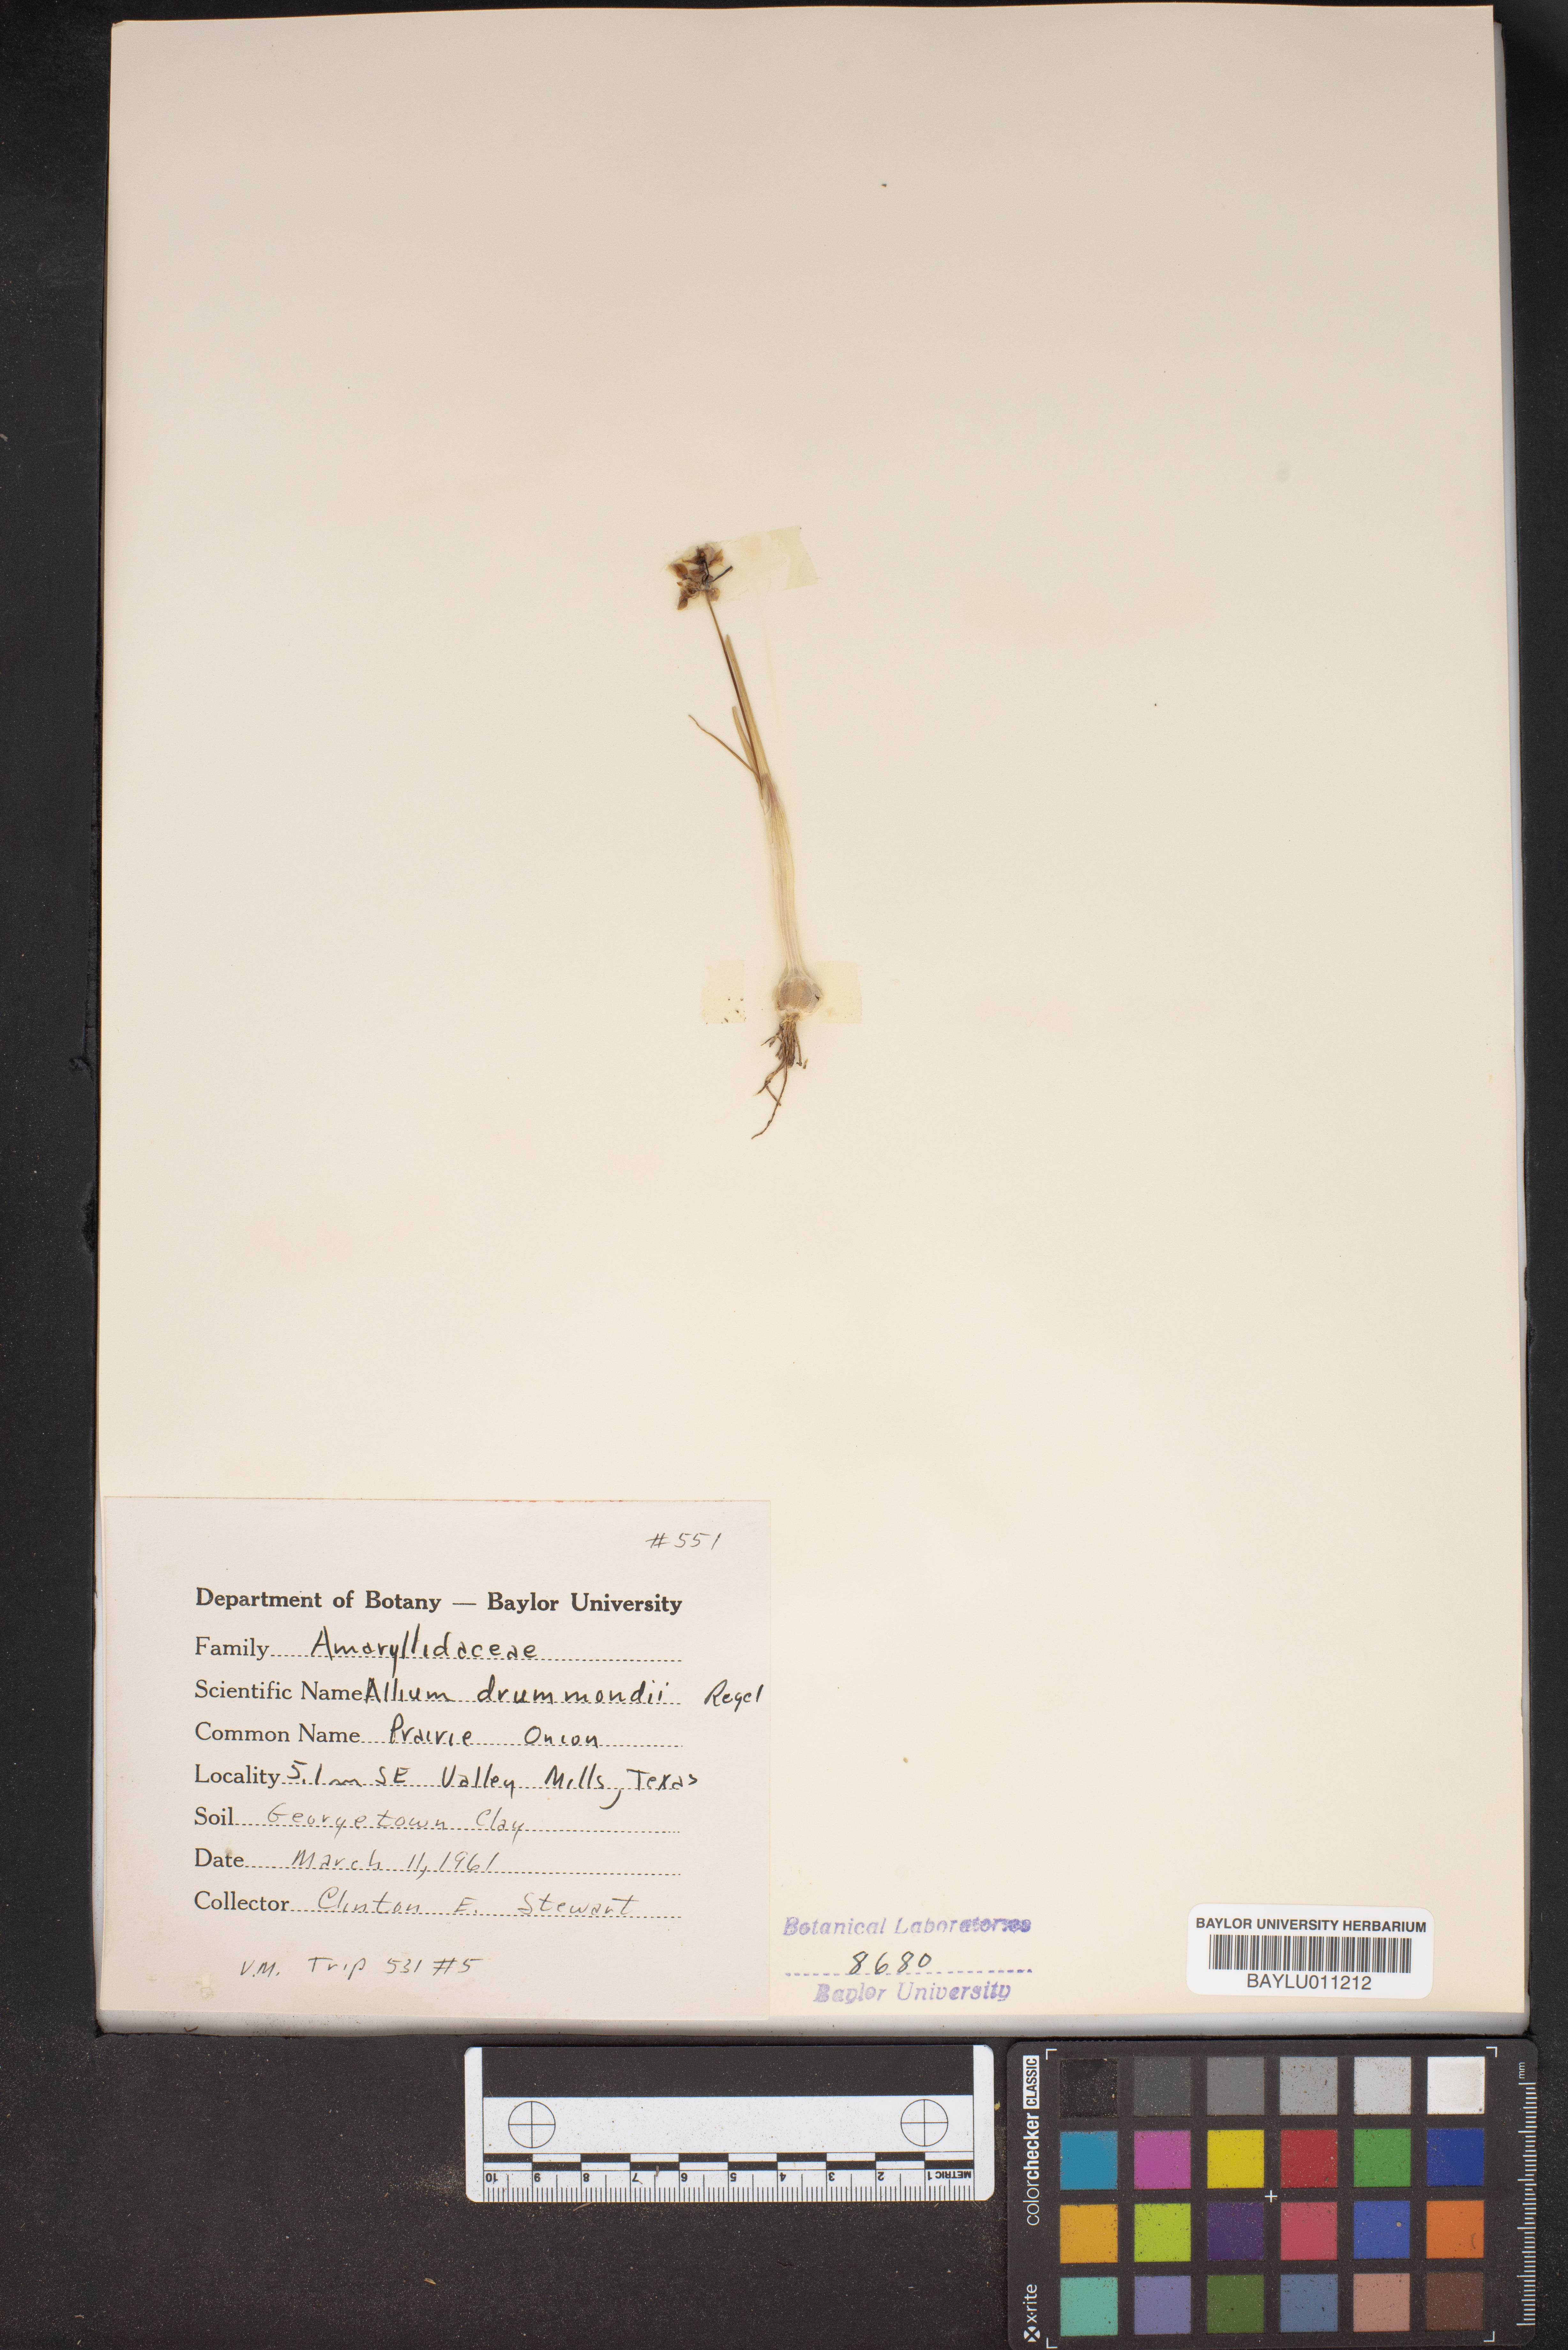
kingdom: Plantae
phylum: Tracheophyta
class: Liliopsida
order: Asparagales
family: Amaryllidaceae
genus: Allium
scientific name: Allium drummondii
